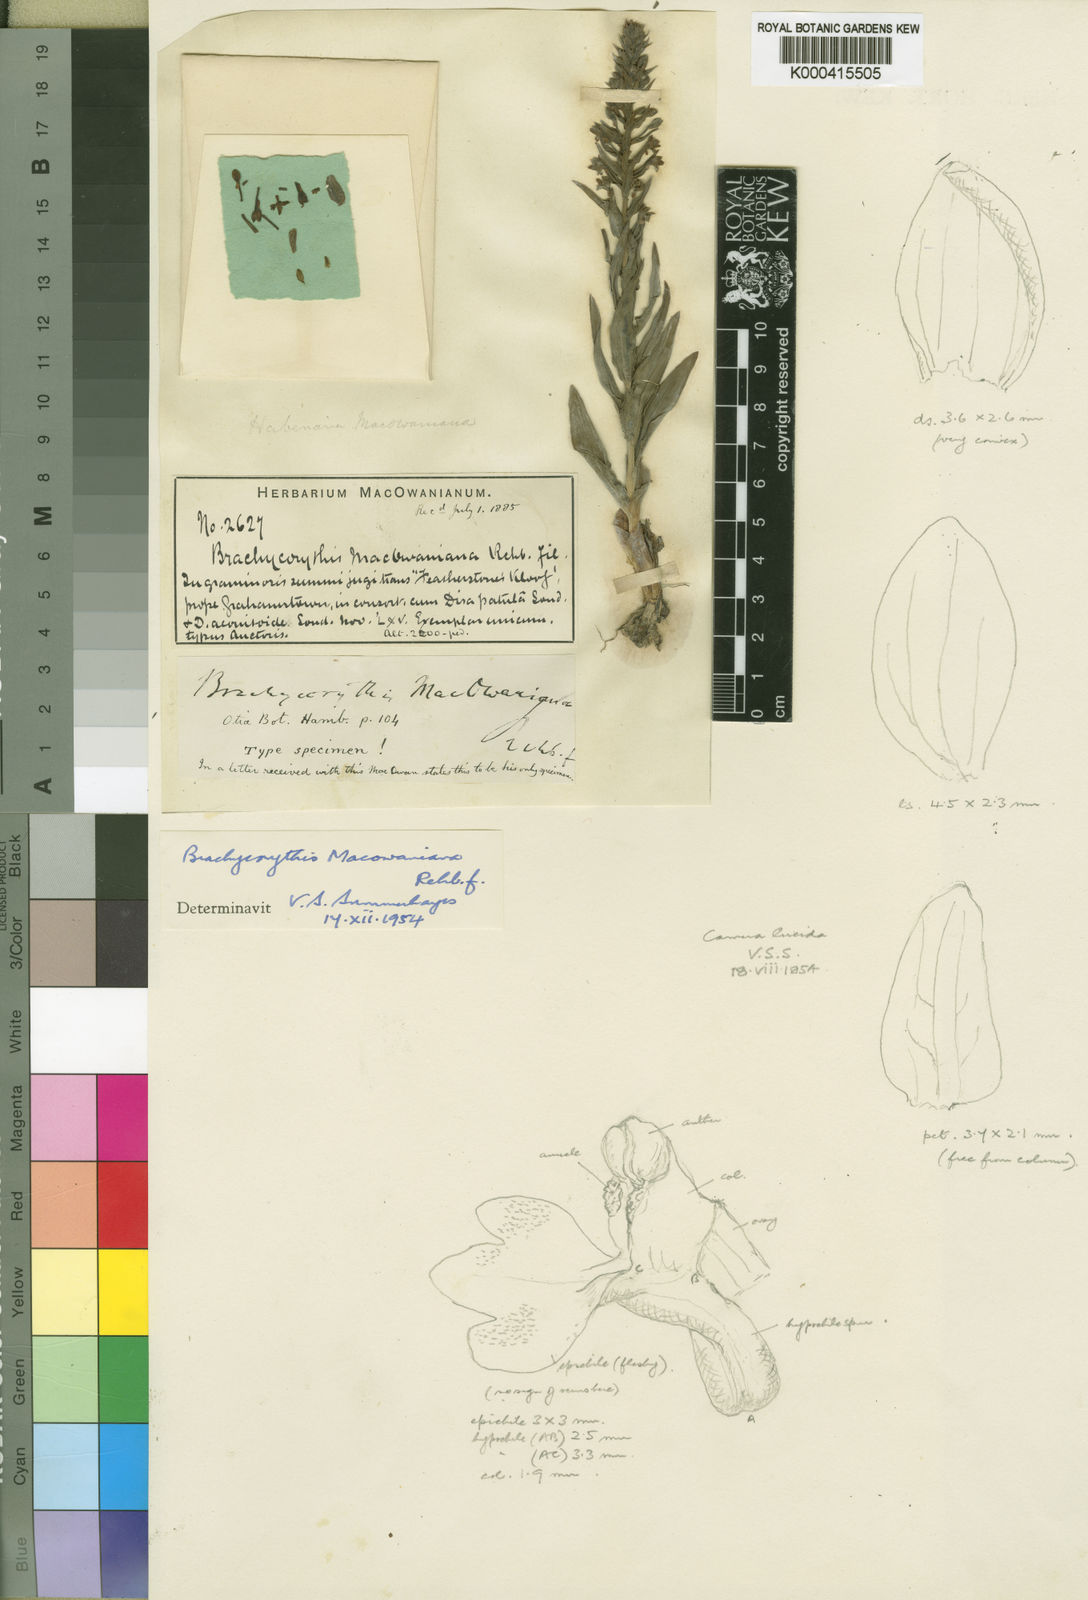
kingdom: Plantae
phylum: Tracheophyta
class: Liliopsida
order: Asparagales
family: Orchidaceae
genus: Brachycorythis
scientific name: Brachycorythis mac-owaniana
